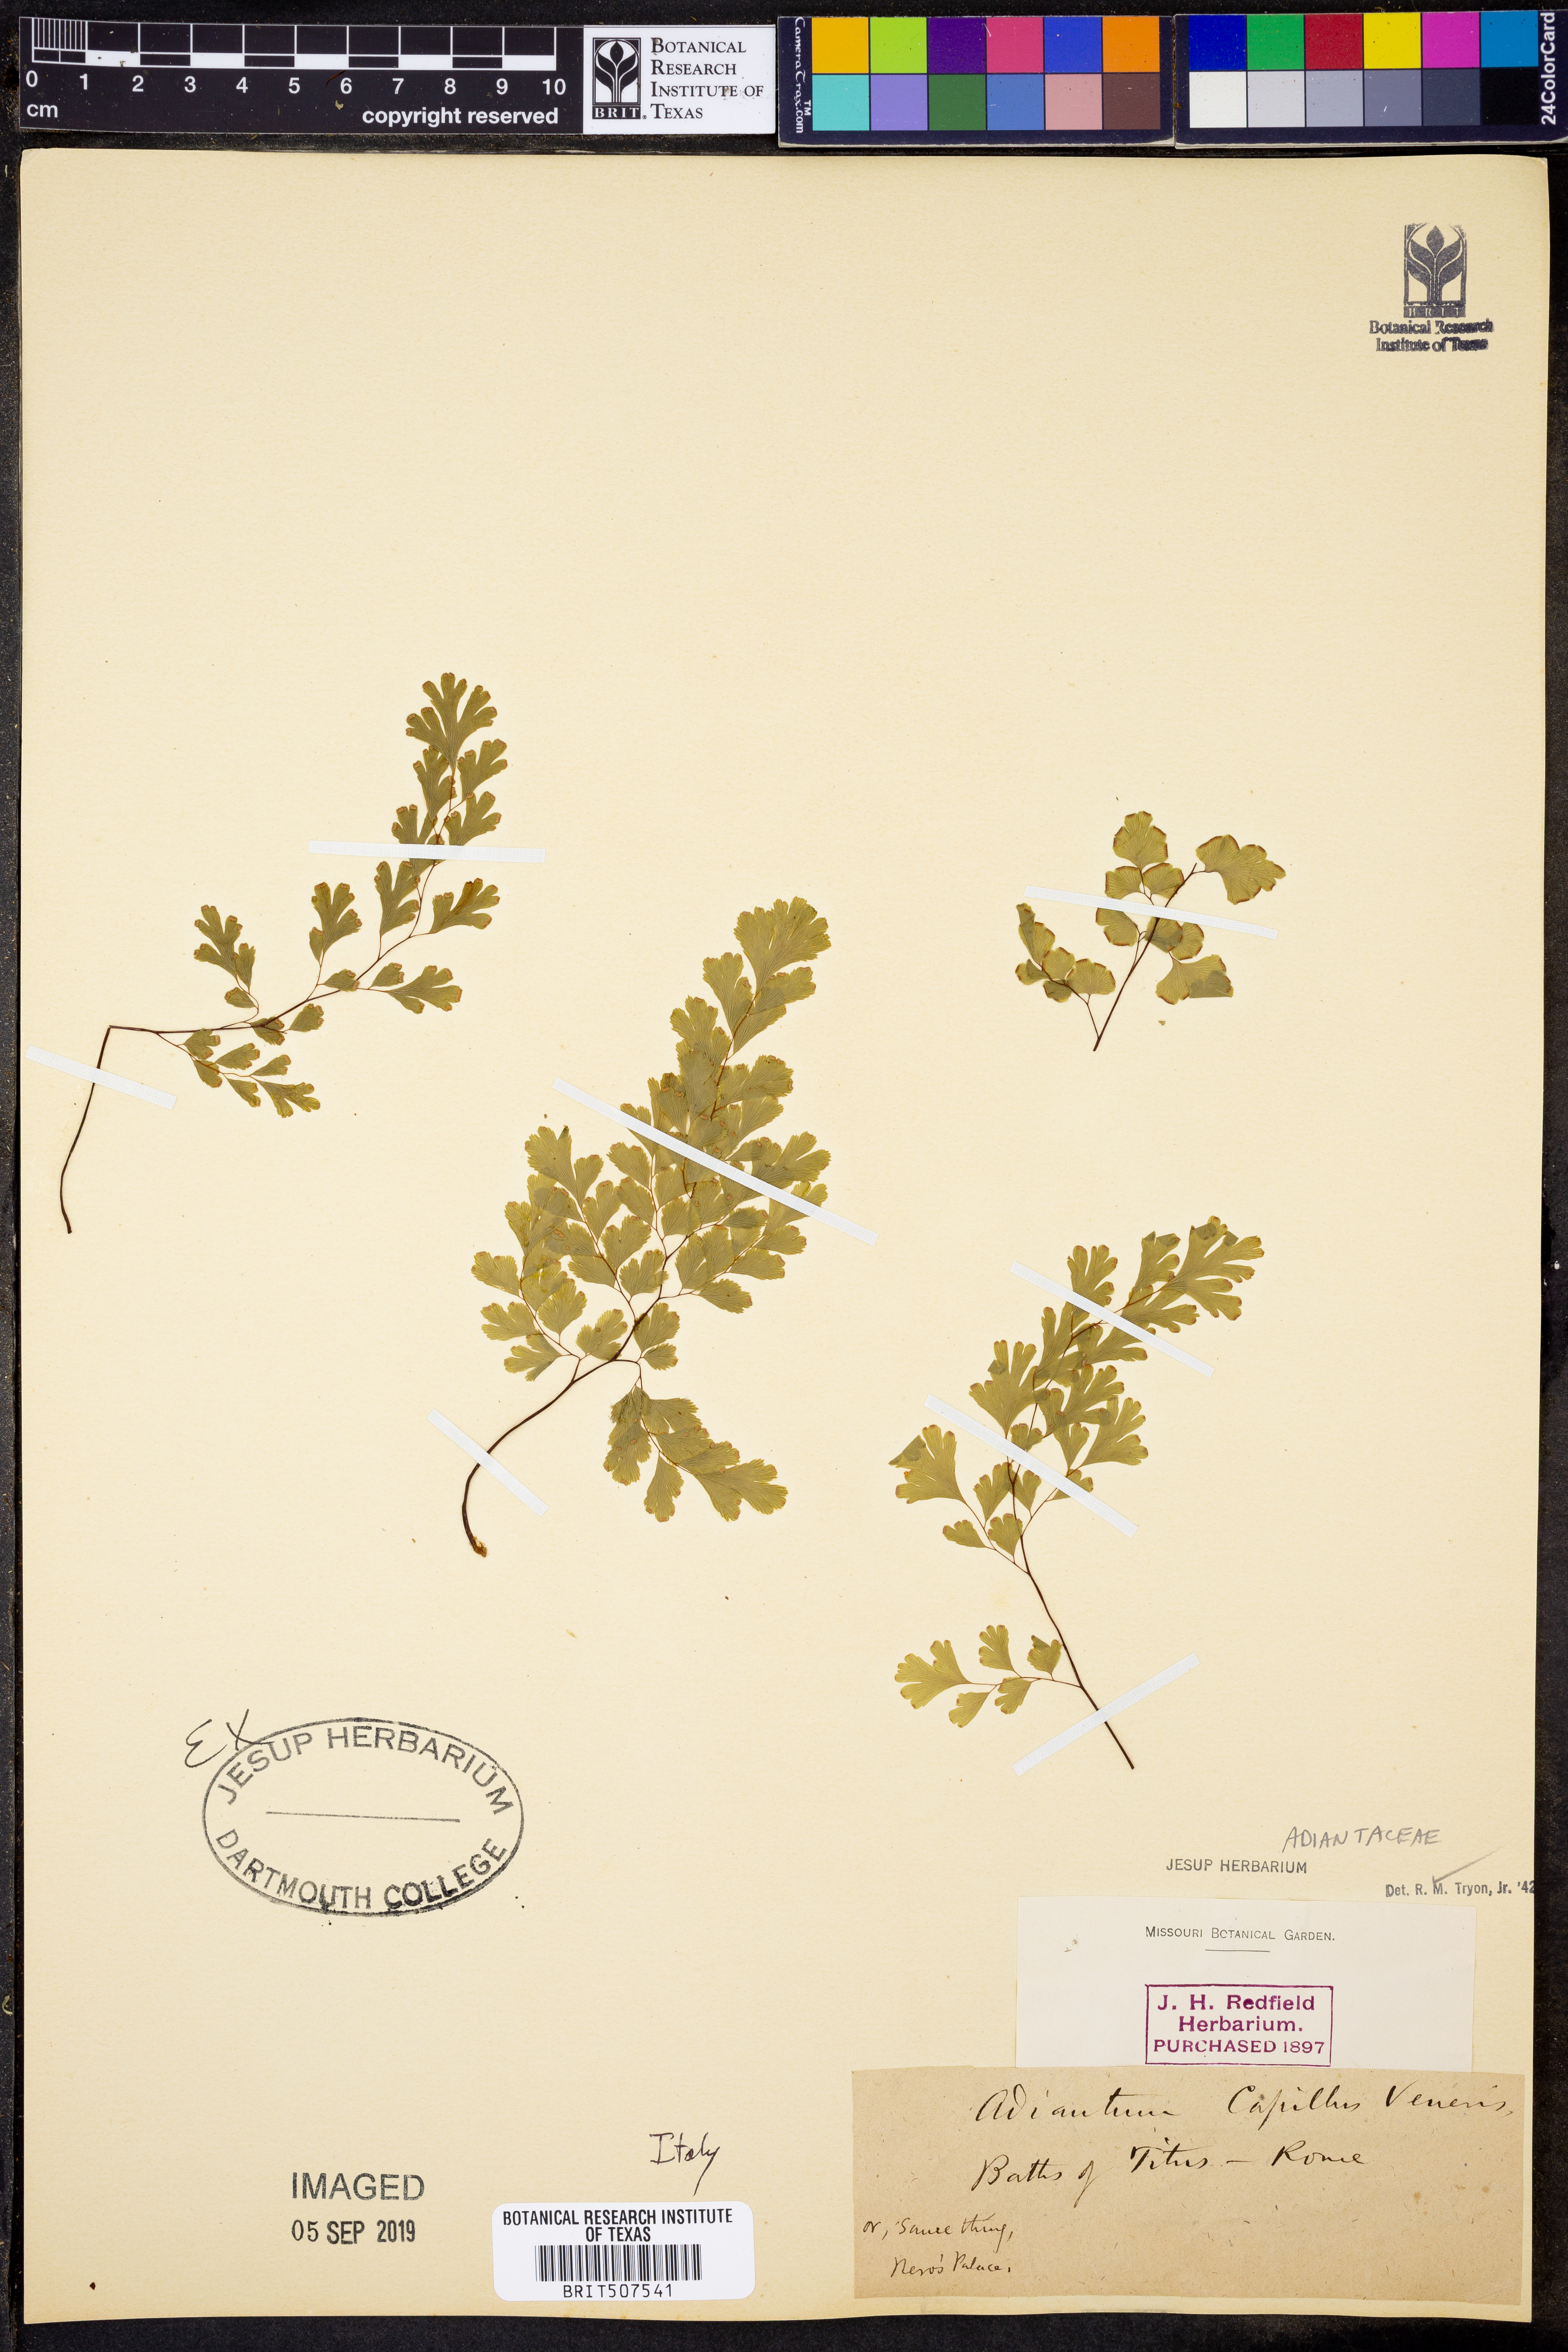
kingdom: Plantae
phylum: Tracheophyta
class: Polypodiopsida
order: Polypodiales
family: Pteridaceae
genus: Adiantum
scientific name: Adiantum capillus-veneris
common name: Maidenhair fern
